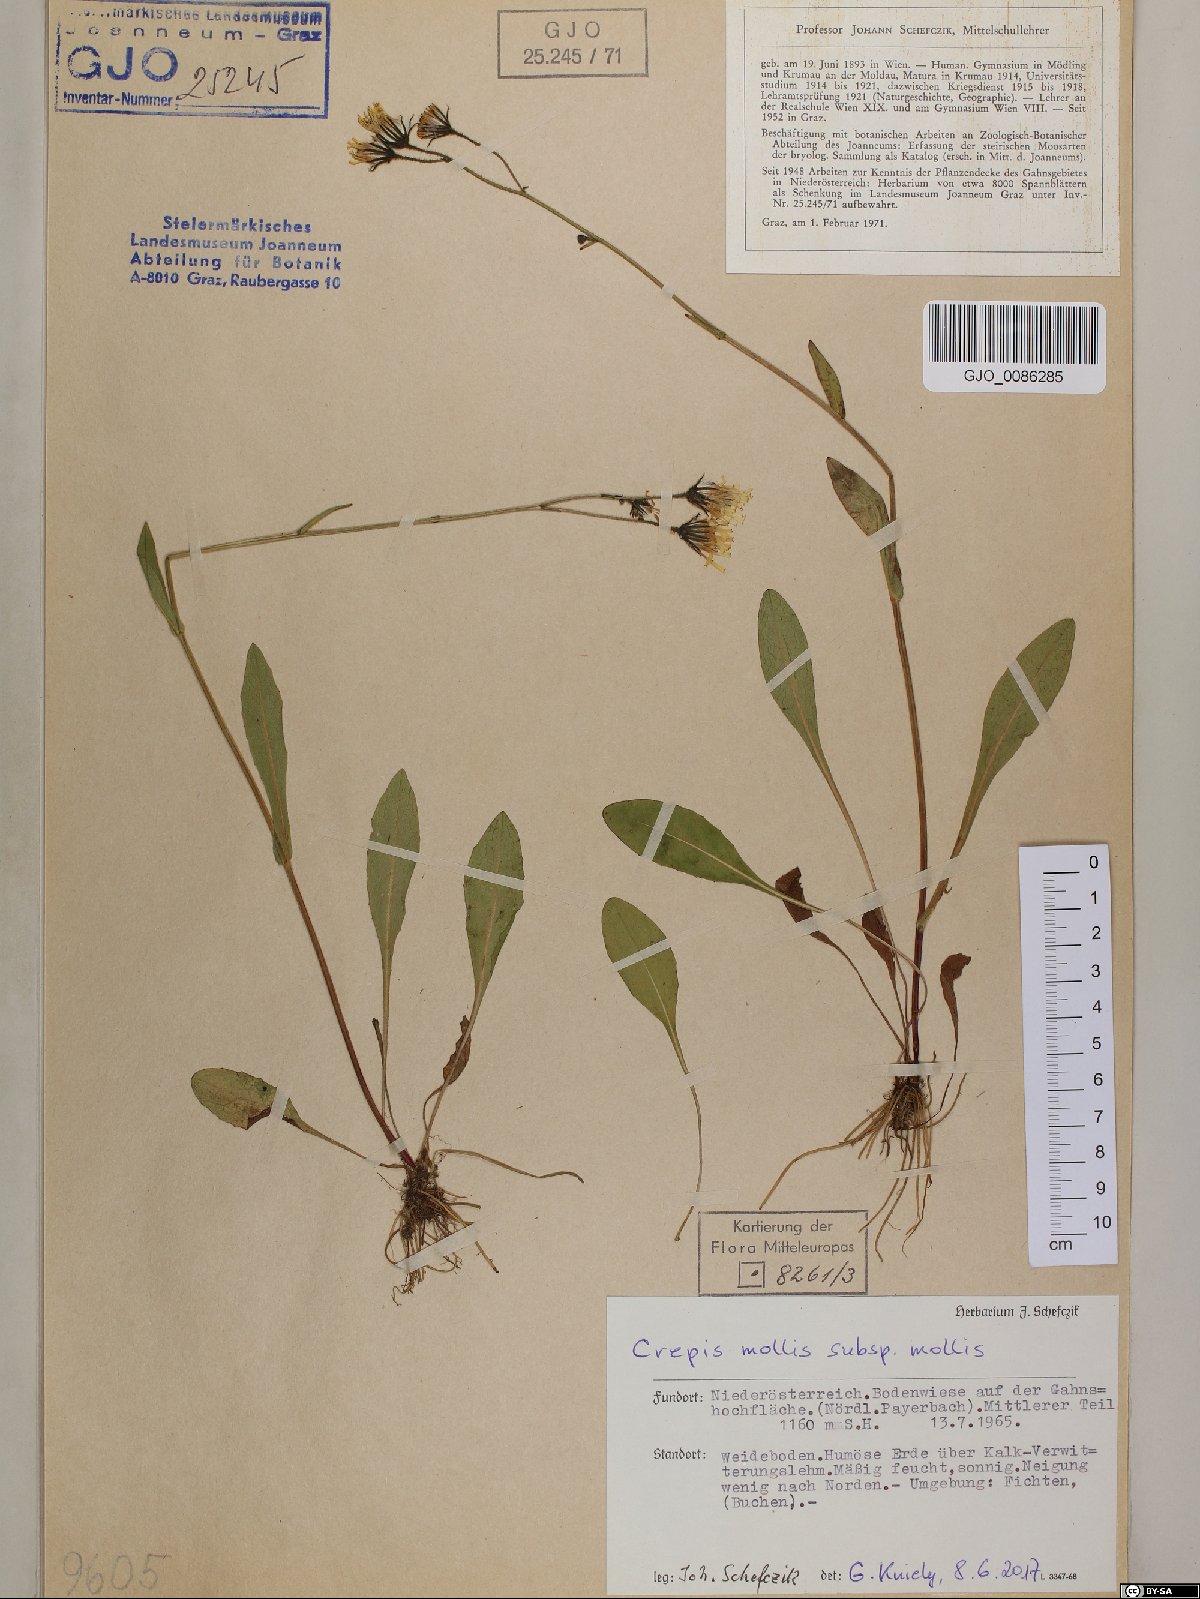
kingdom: Plantae
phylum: Tracheophyta
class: Magnoliopsida
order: Asterales
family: Asteraceae
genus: Crepis
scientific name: Crepis mollis
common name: Northern hawk's-beard
